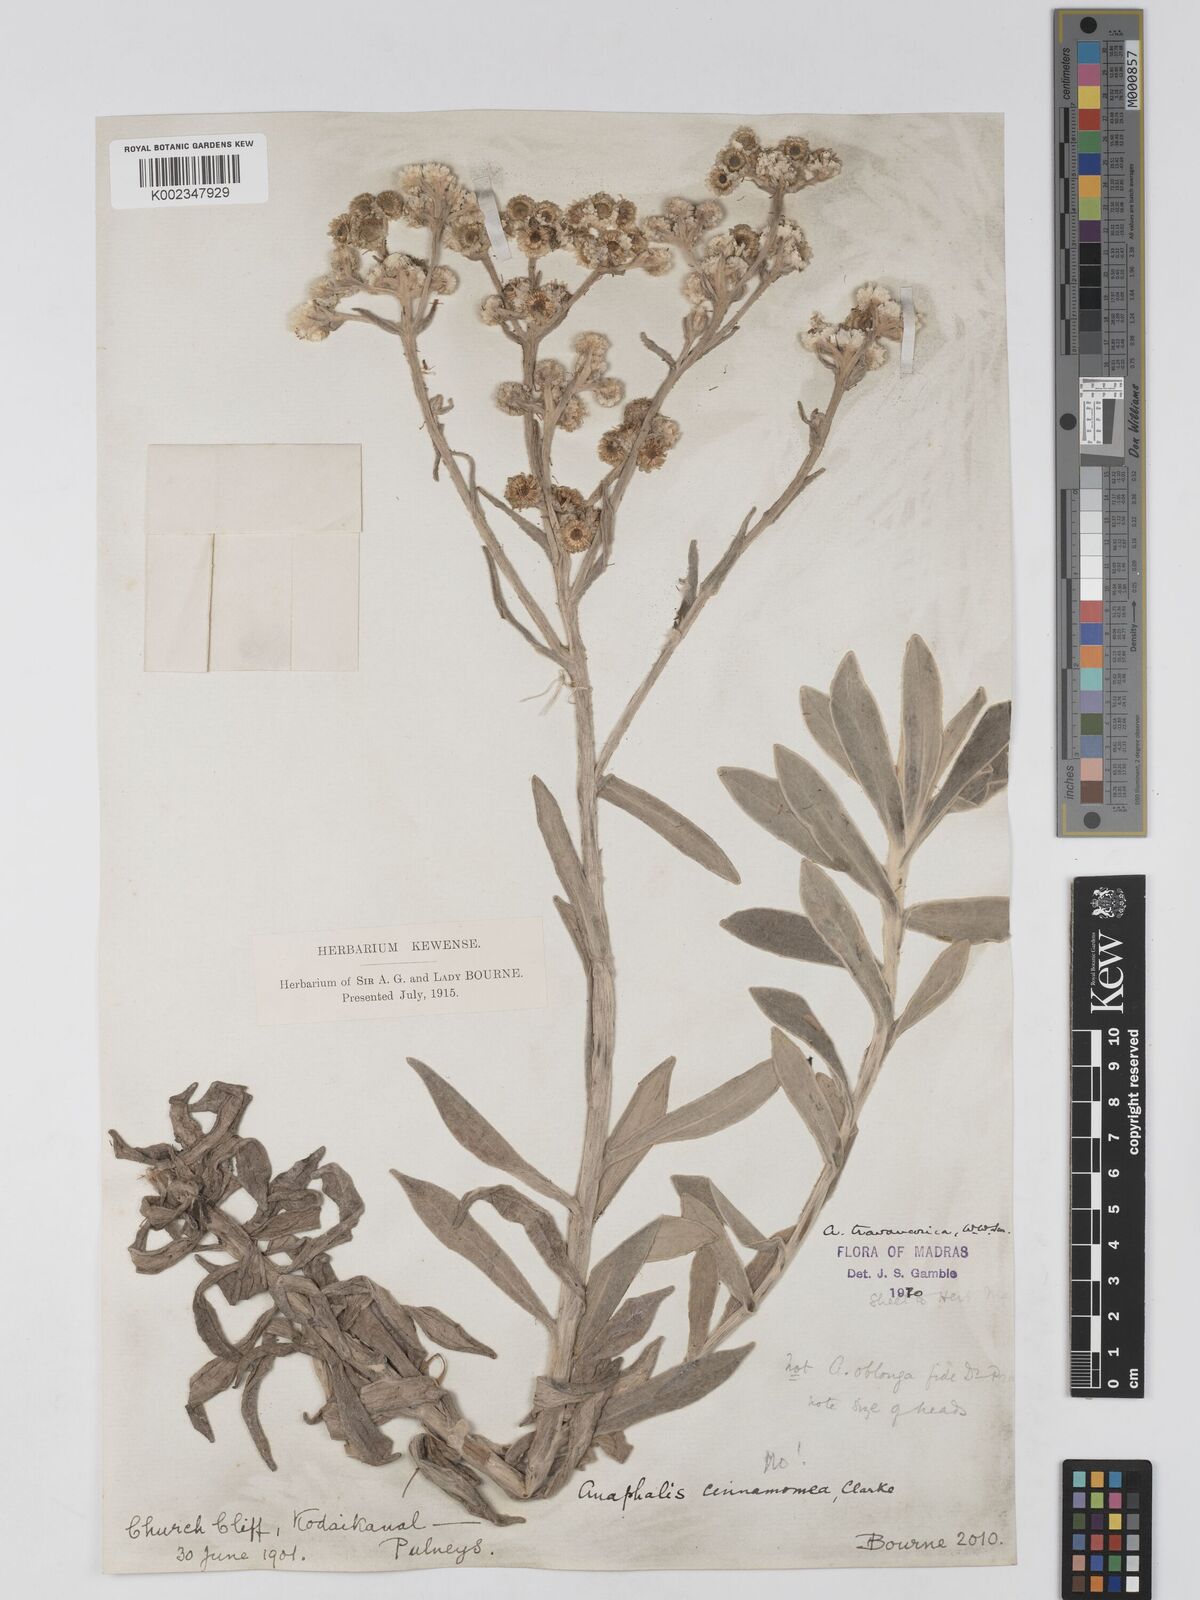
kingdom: Plantae
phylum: Tracheophyta
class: Magnoliopsida
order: Asterales
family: Asteraceae
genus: Anaphalis
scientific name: Anaphalis travancorica
